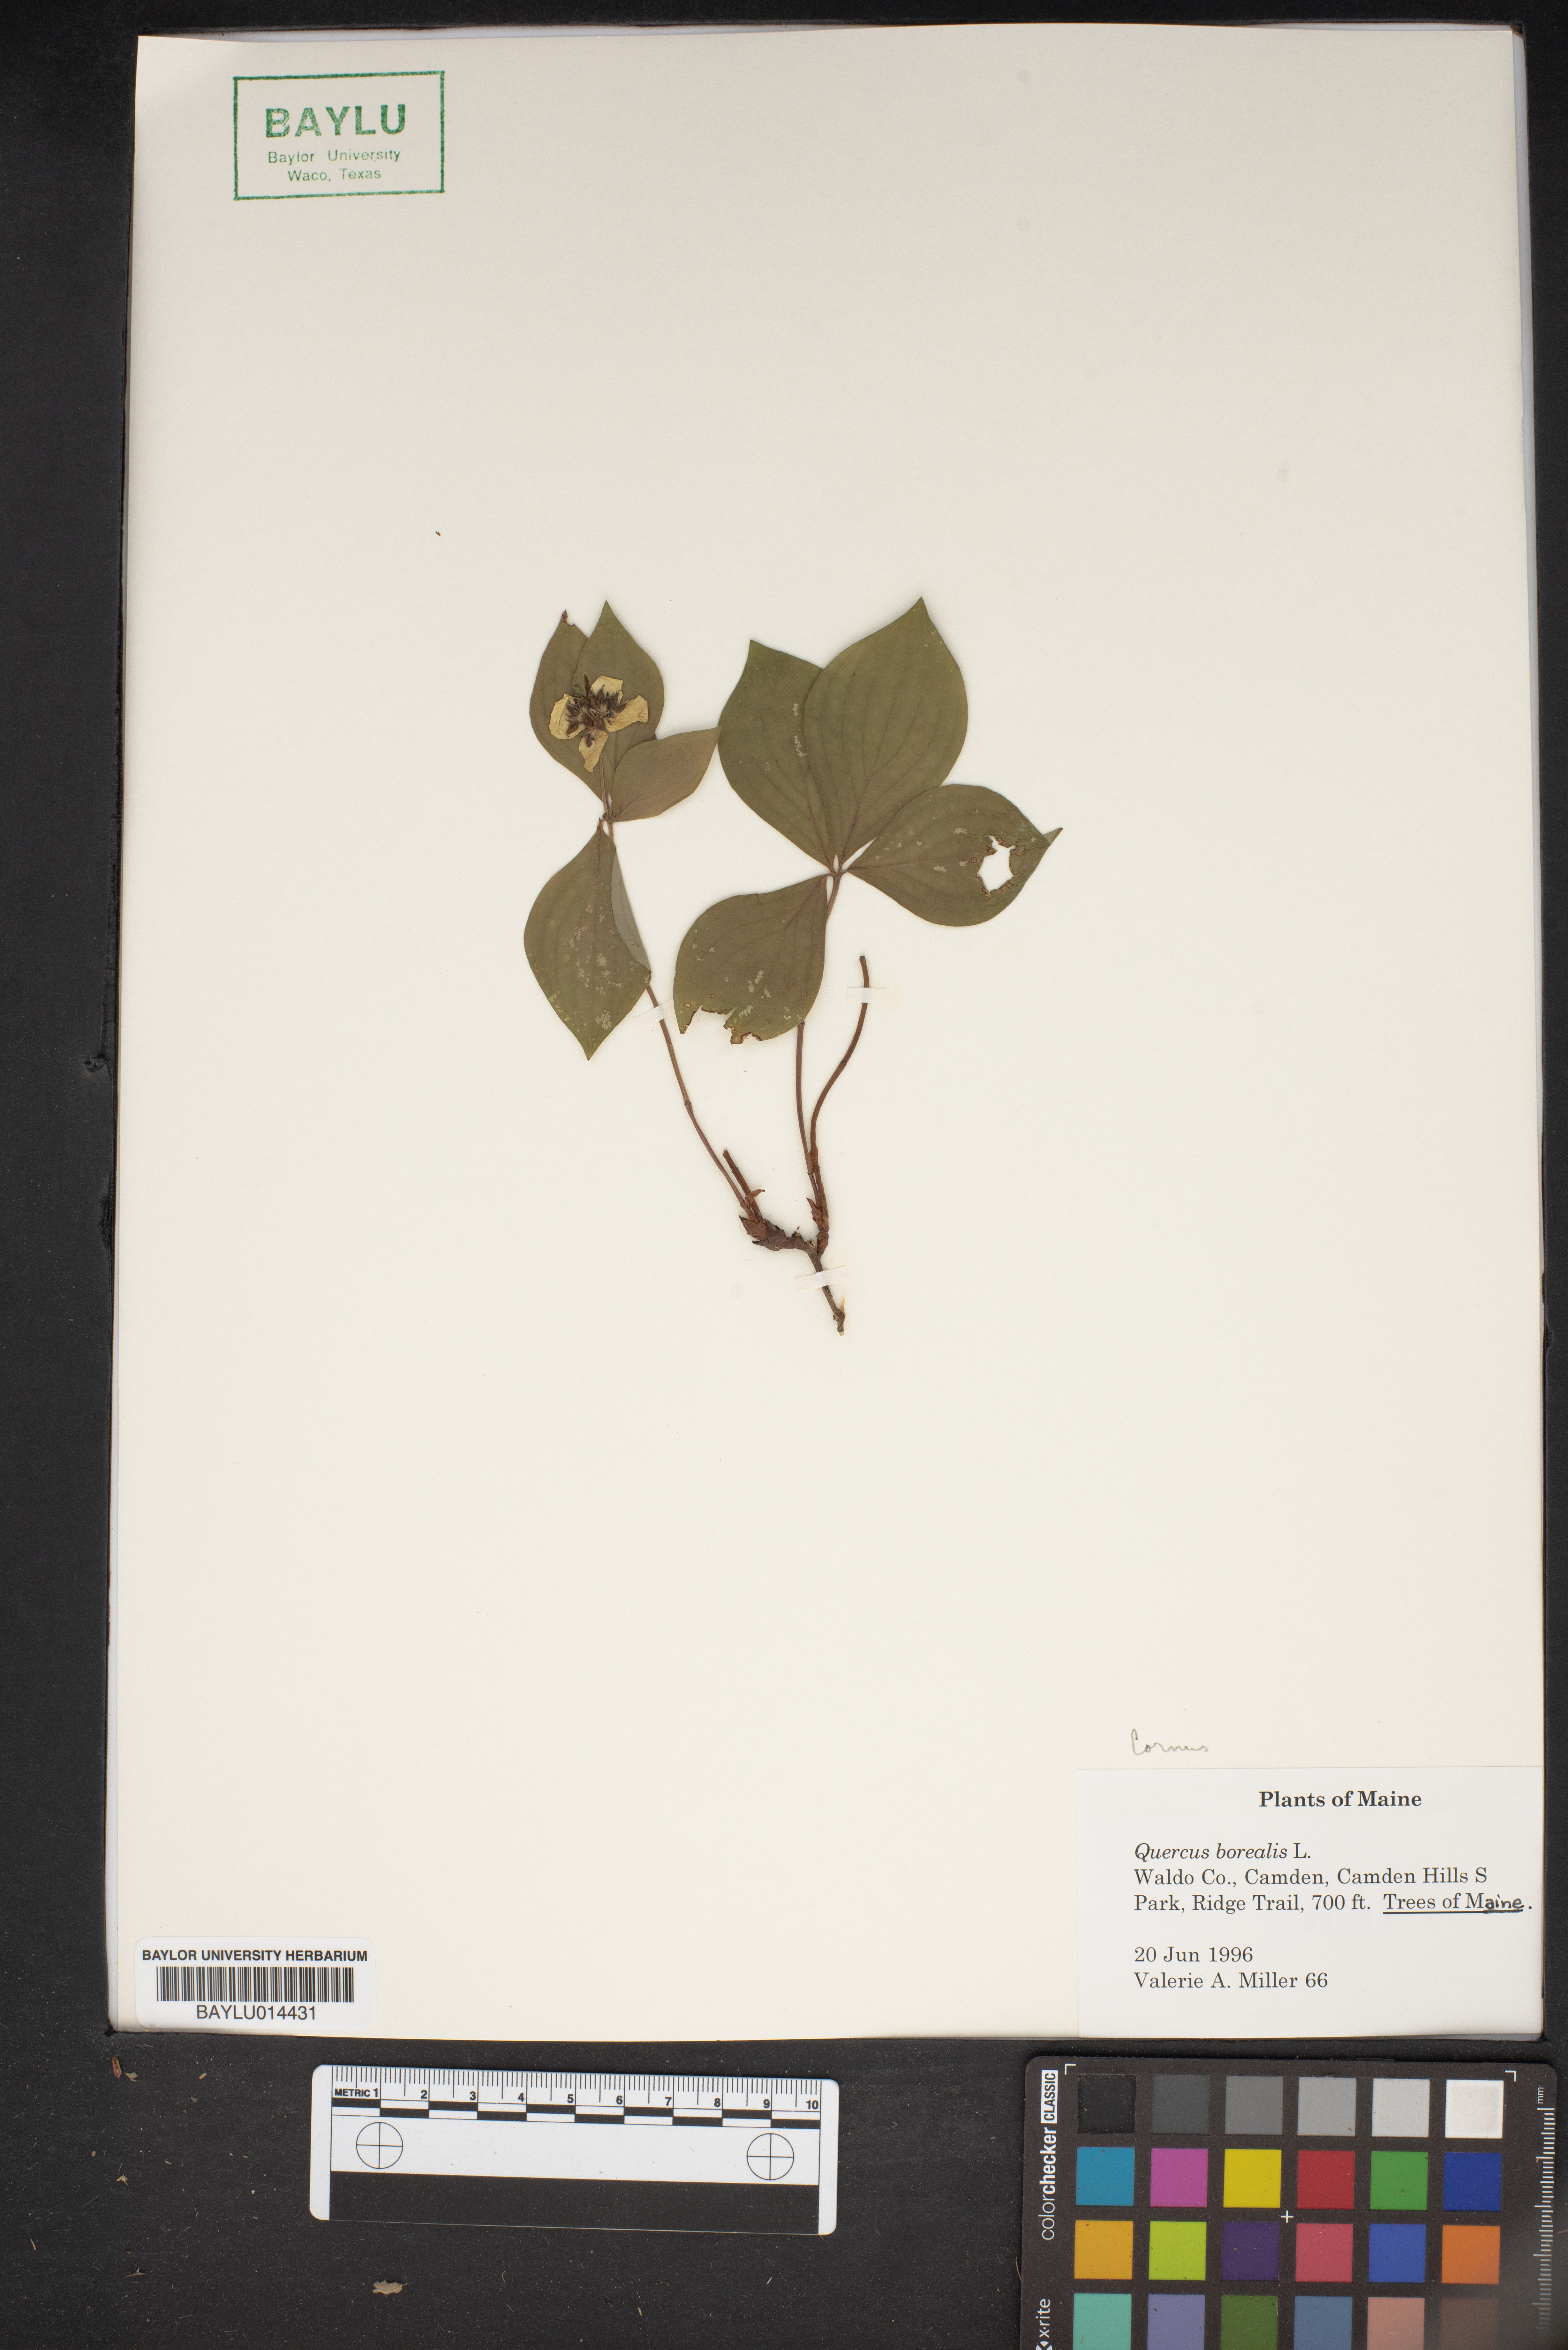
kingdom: Plantae
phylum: Tracheophyta
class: Magnoliopsida
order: Fagales
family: Fagaceae
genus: Quercus
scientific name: Quercus rubra
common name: Red oak
